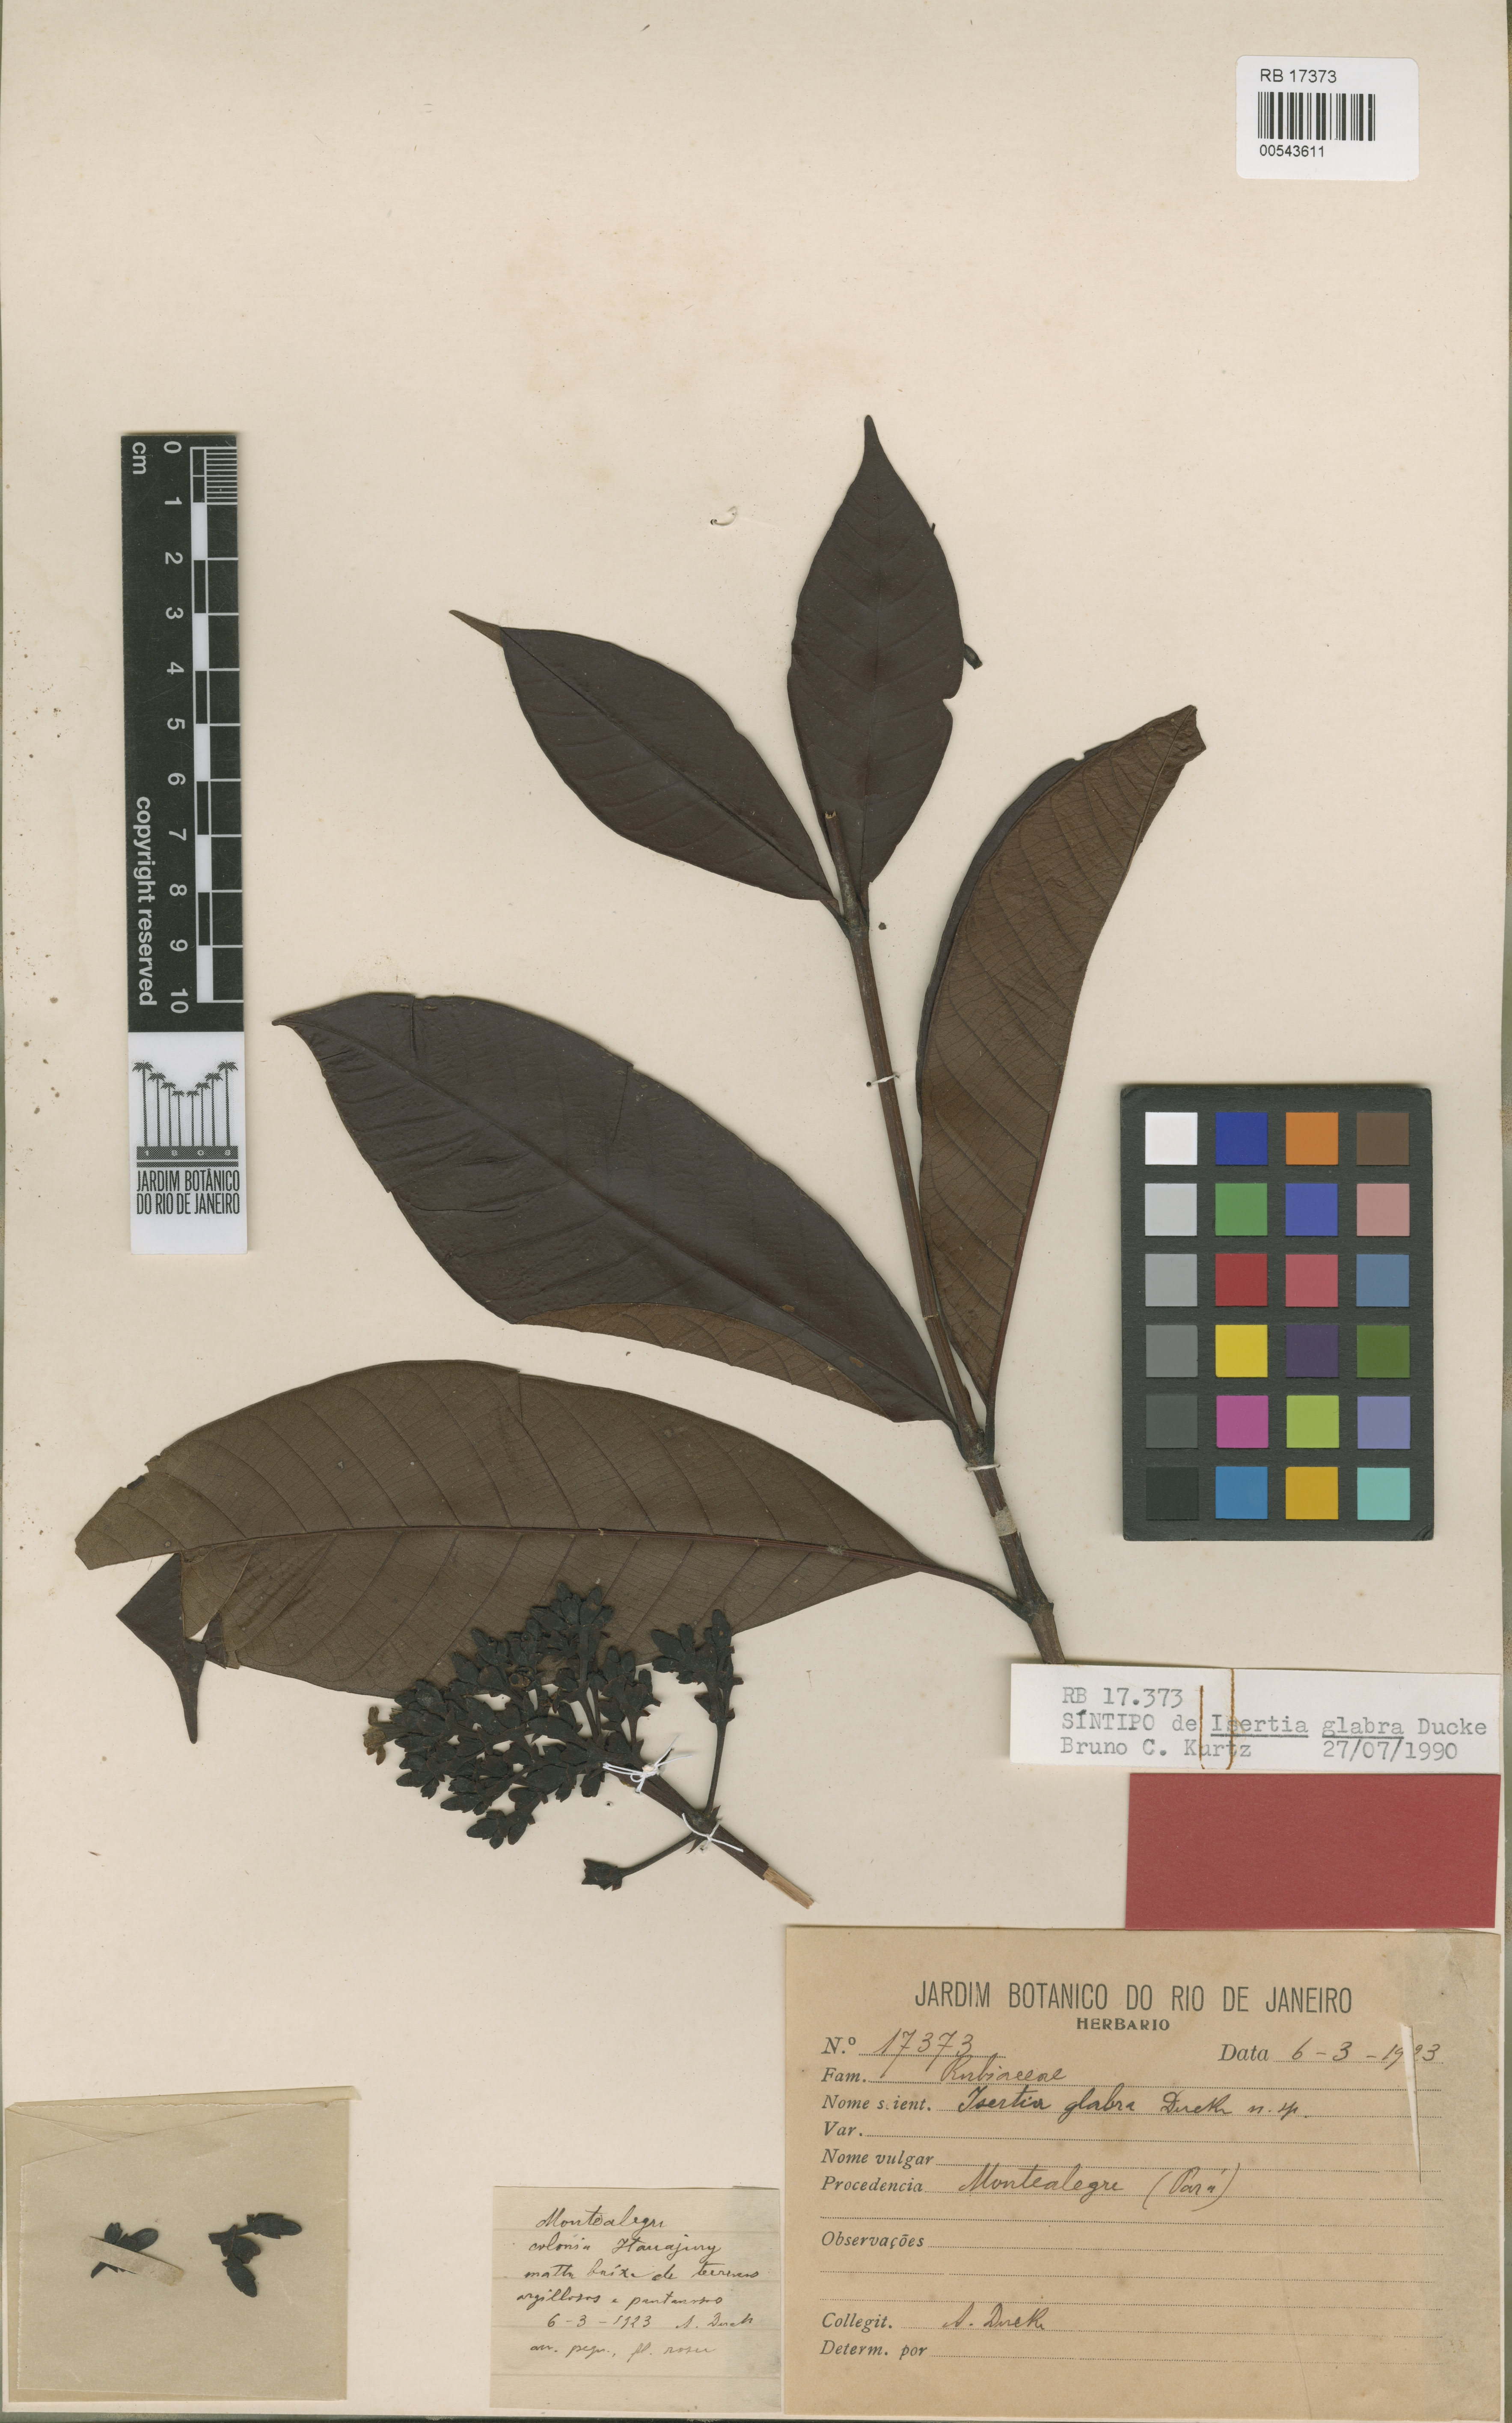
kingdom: Plantae
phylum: Tracheophyta
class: Magnoliopsida
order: Gentianales
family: Rubiaceae
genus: Isertia
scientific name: Isertia parviflora
